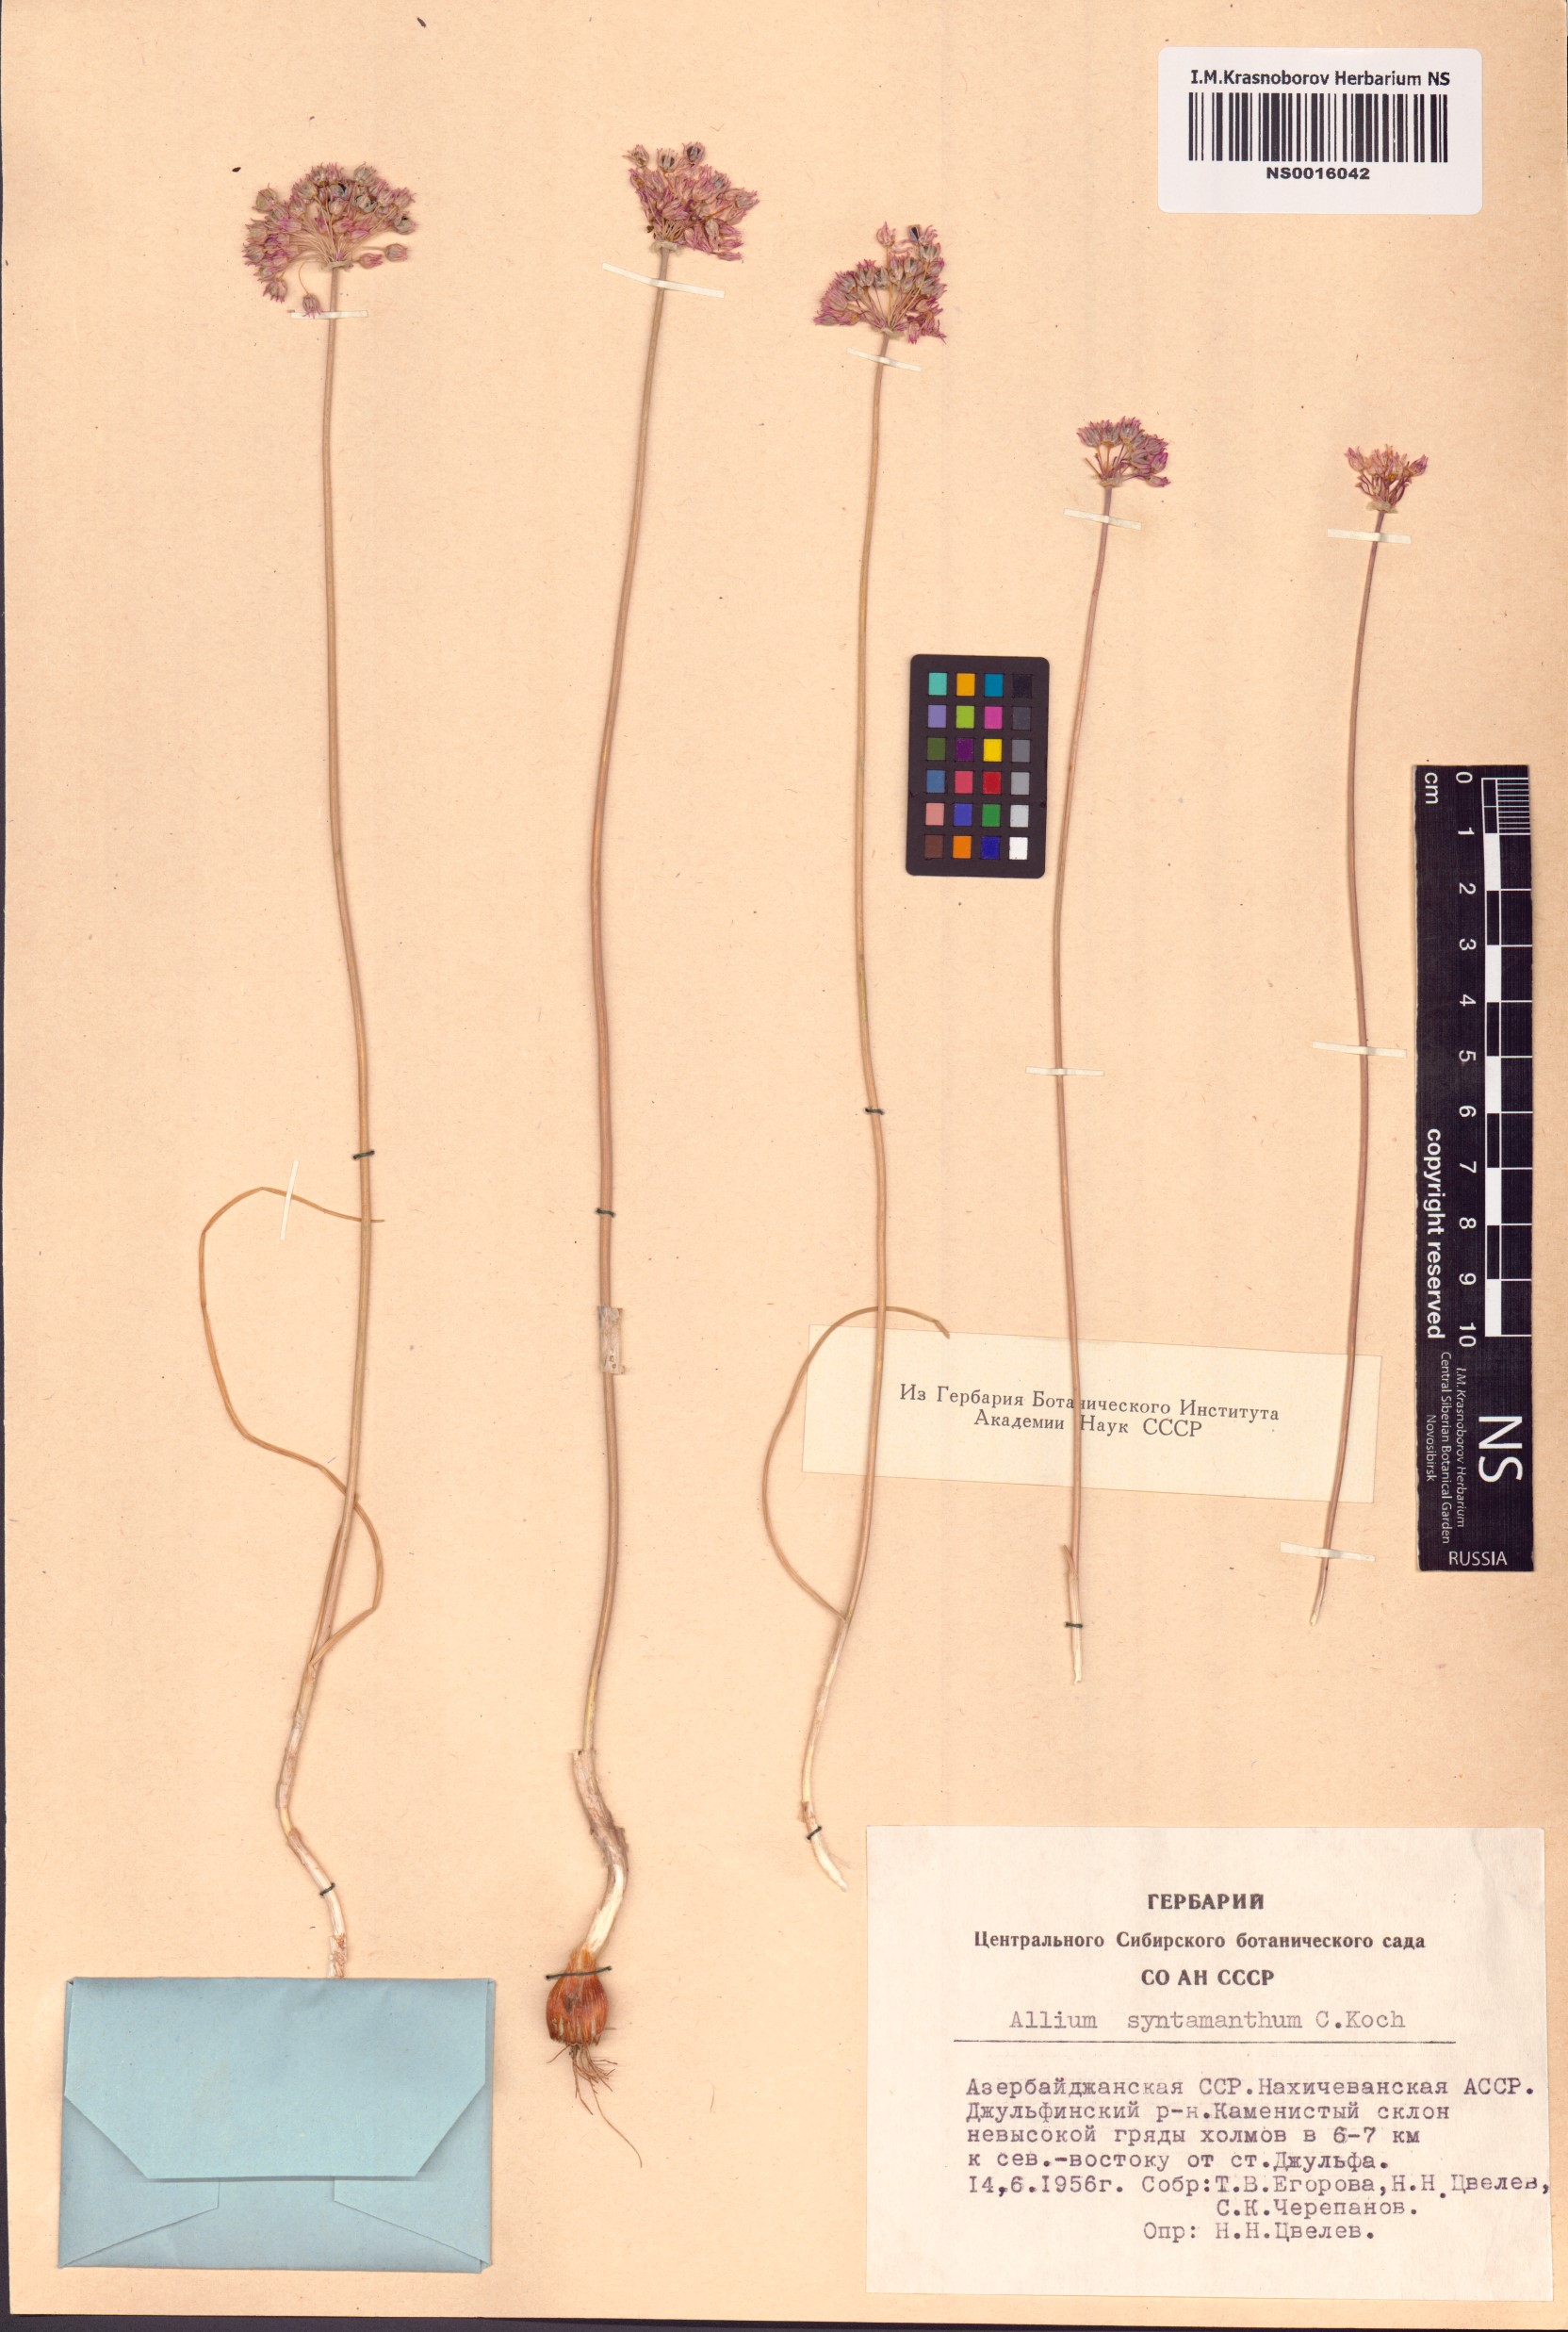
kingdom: Plantae
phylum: Tracheophyta
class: Liliopsida
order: Asparagales
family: Amaryllidaceae
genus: Allium
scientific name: Allium rubellum
